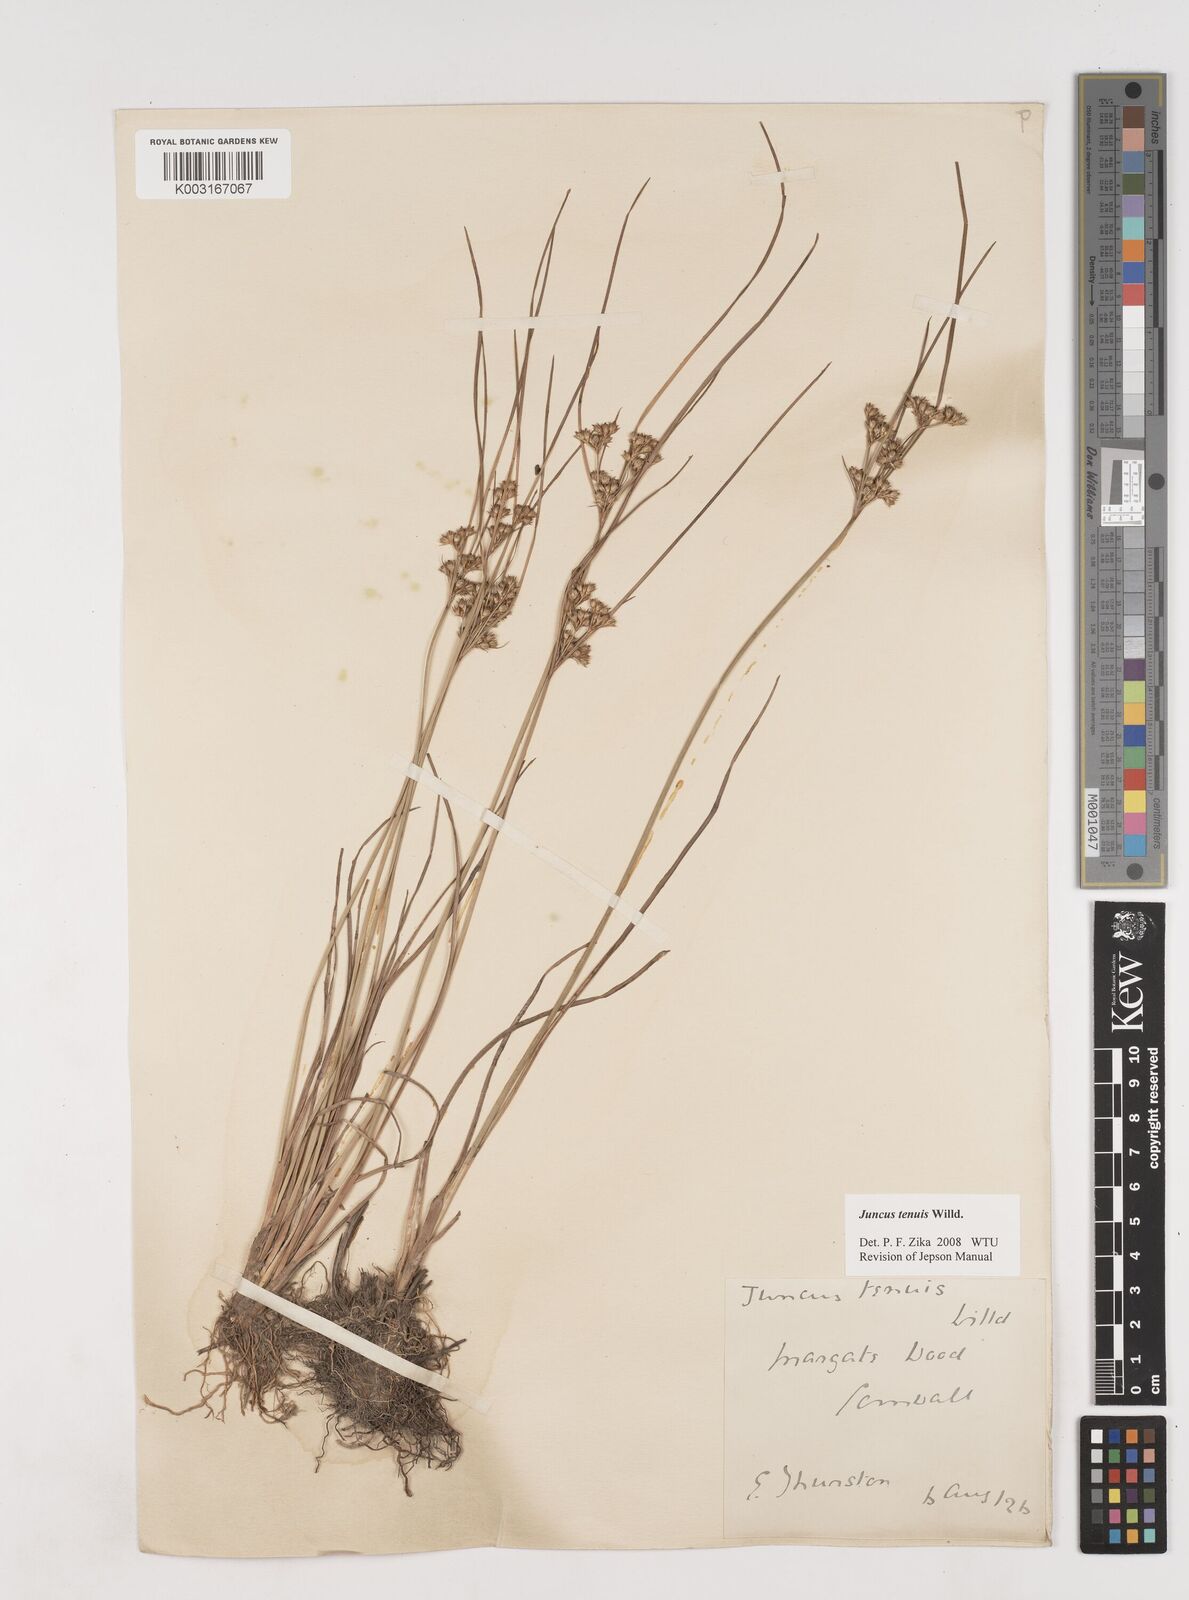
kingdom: Plantae
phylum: Tracheophyta
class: Liliopsida
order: Poales
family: Juncaceae
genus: Juncus
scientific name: Juncus tenuis
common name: Slender rush
